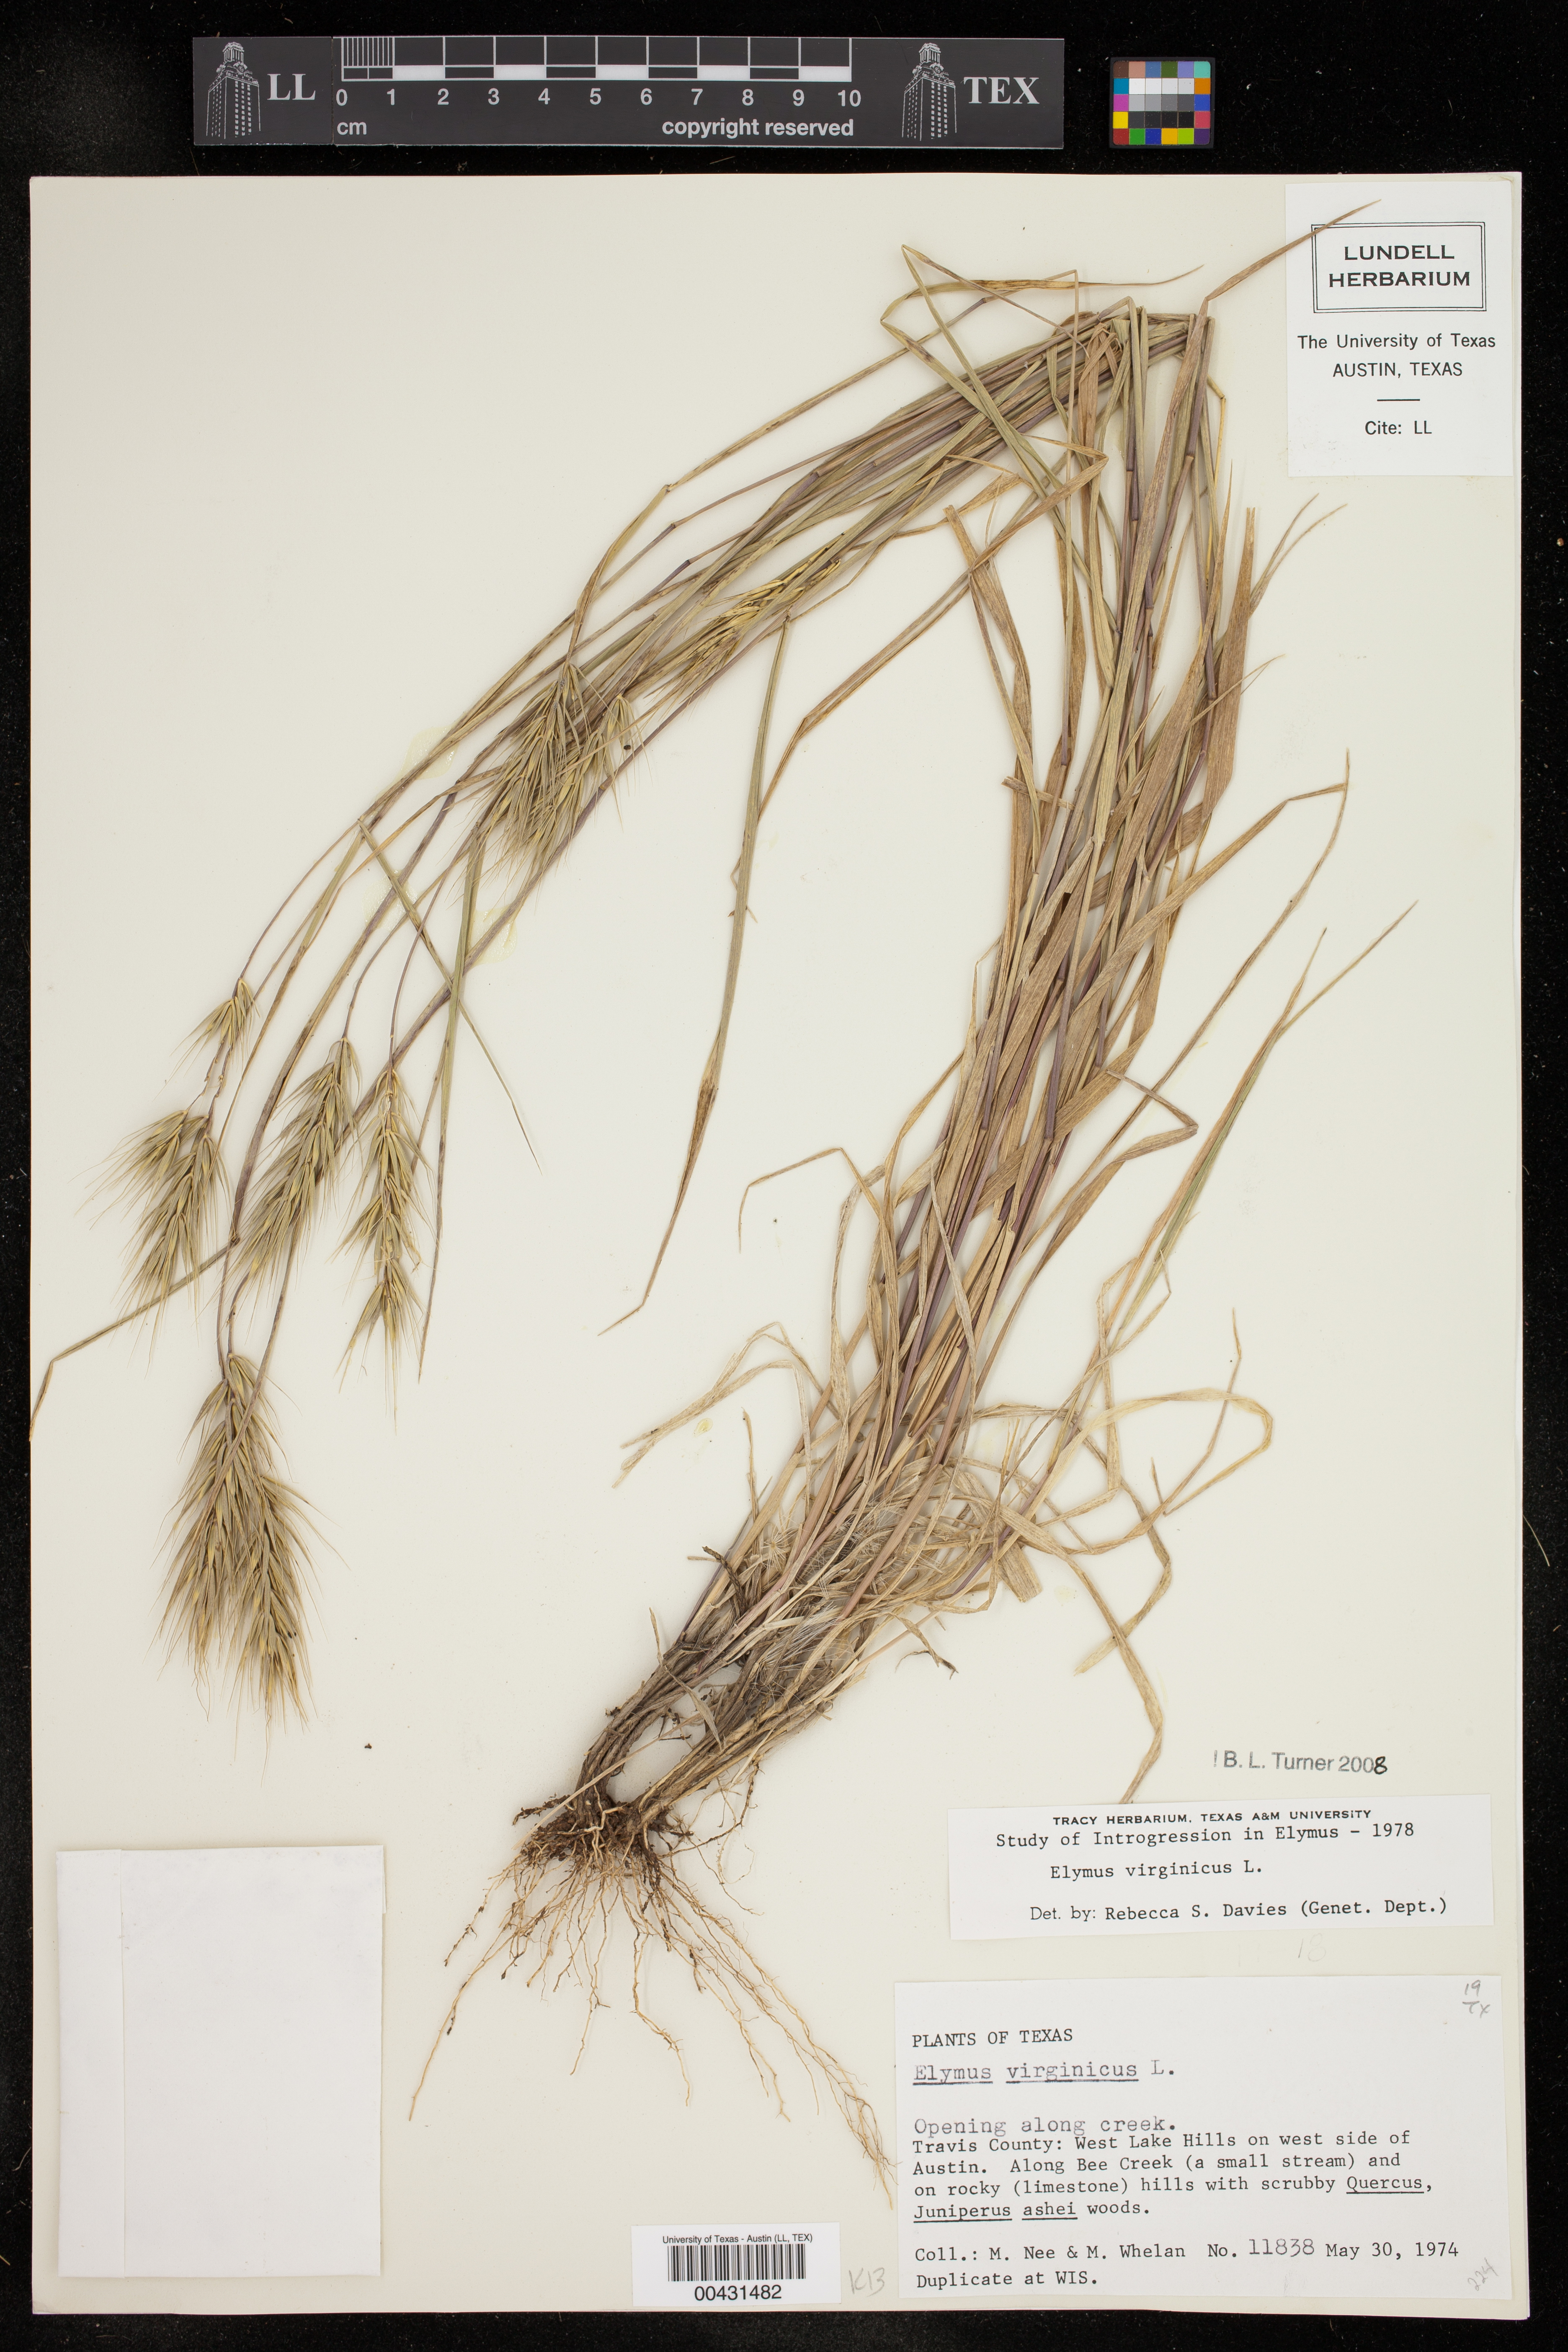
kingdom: Plantae
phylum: Tracheophyta
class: Liliopsida
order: Poales
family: Poaceae
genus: Elymus
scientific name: Elymus virginicus
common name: Common eastern wildrye
